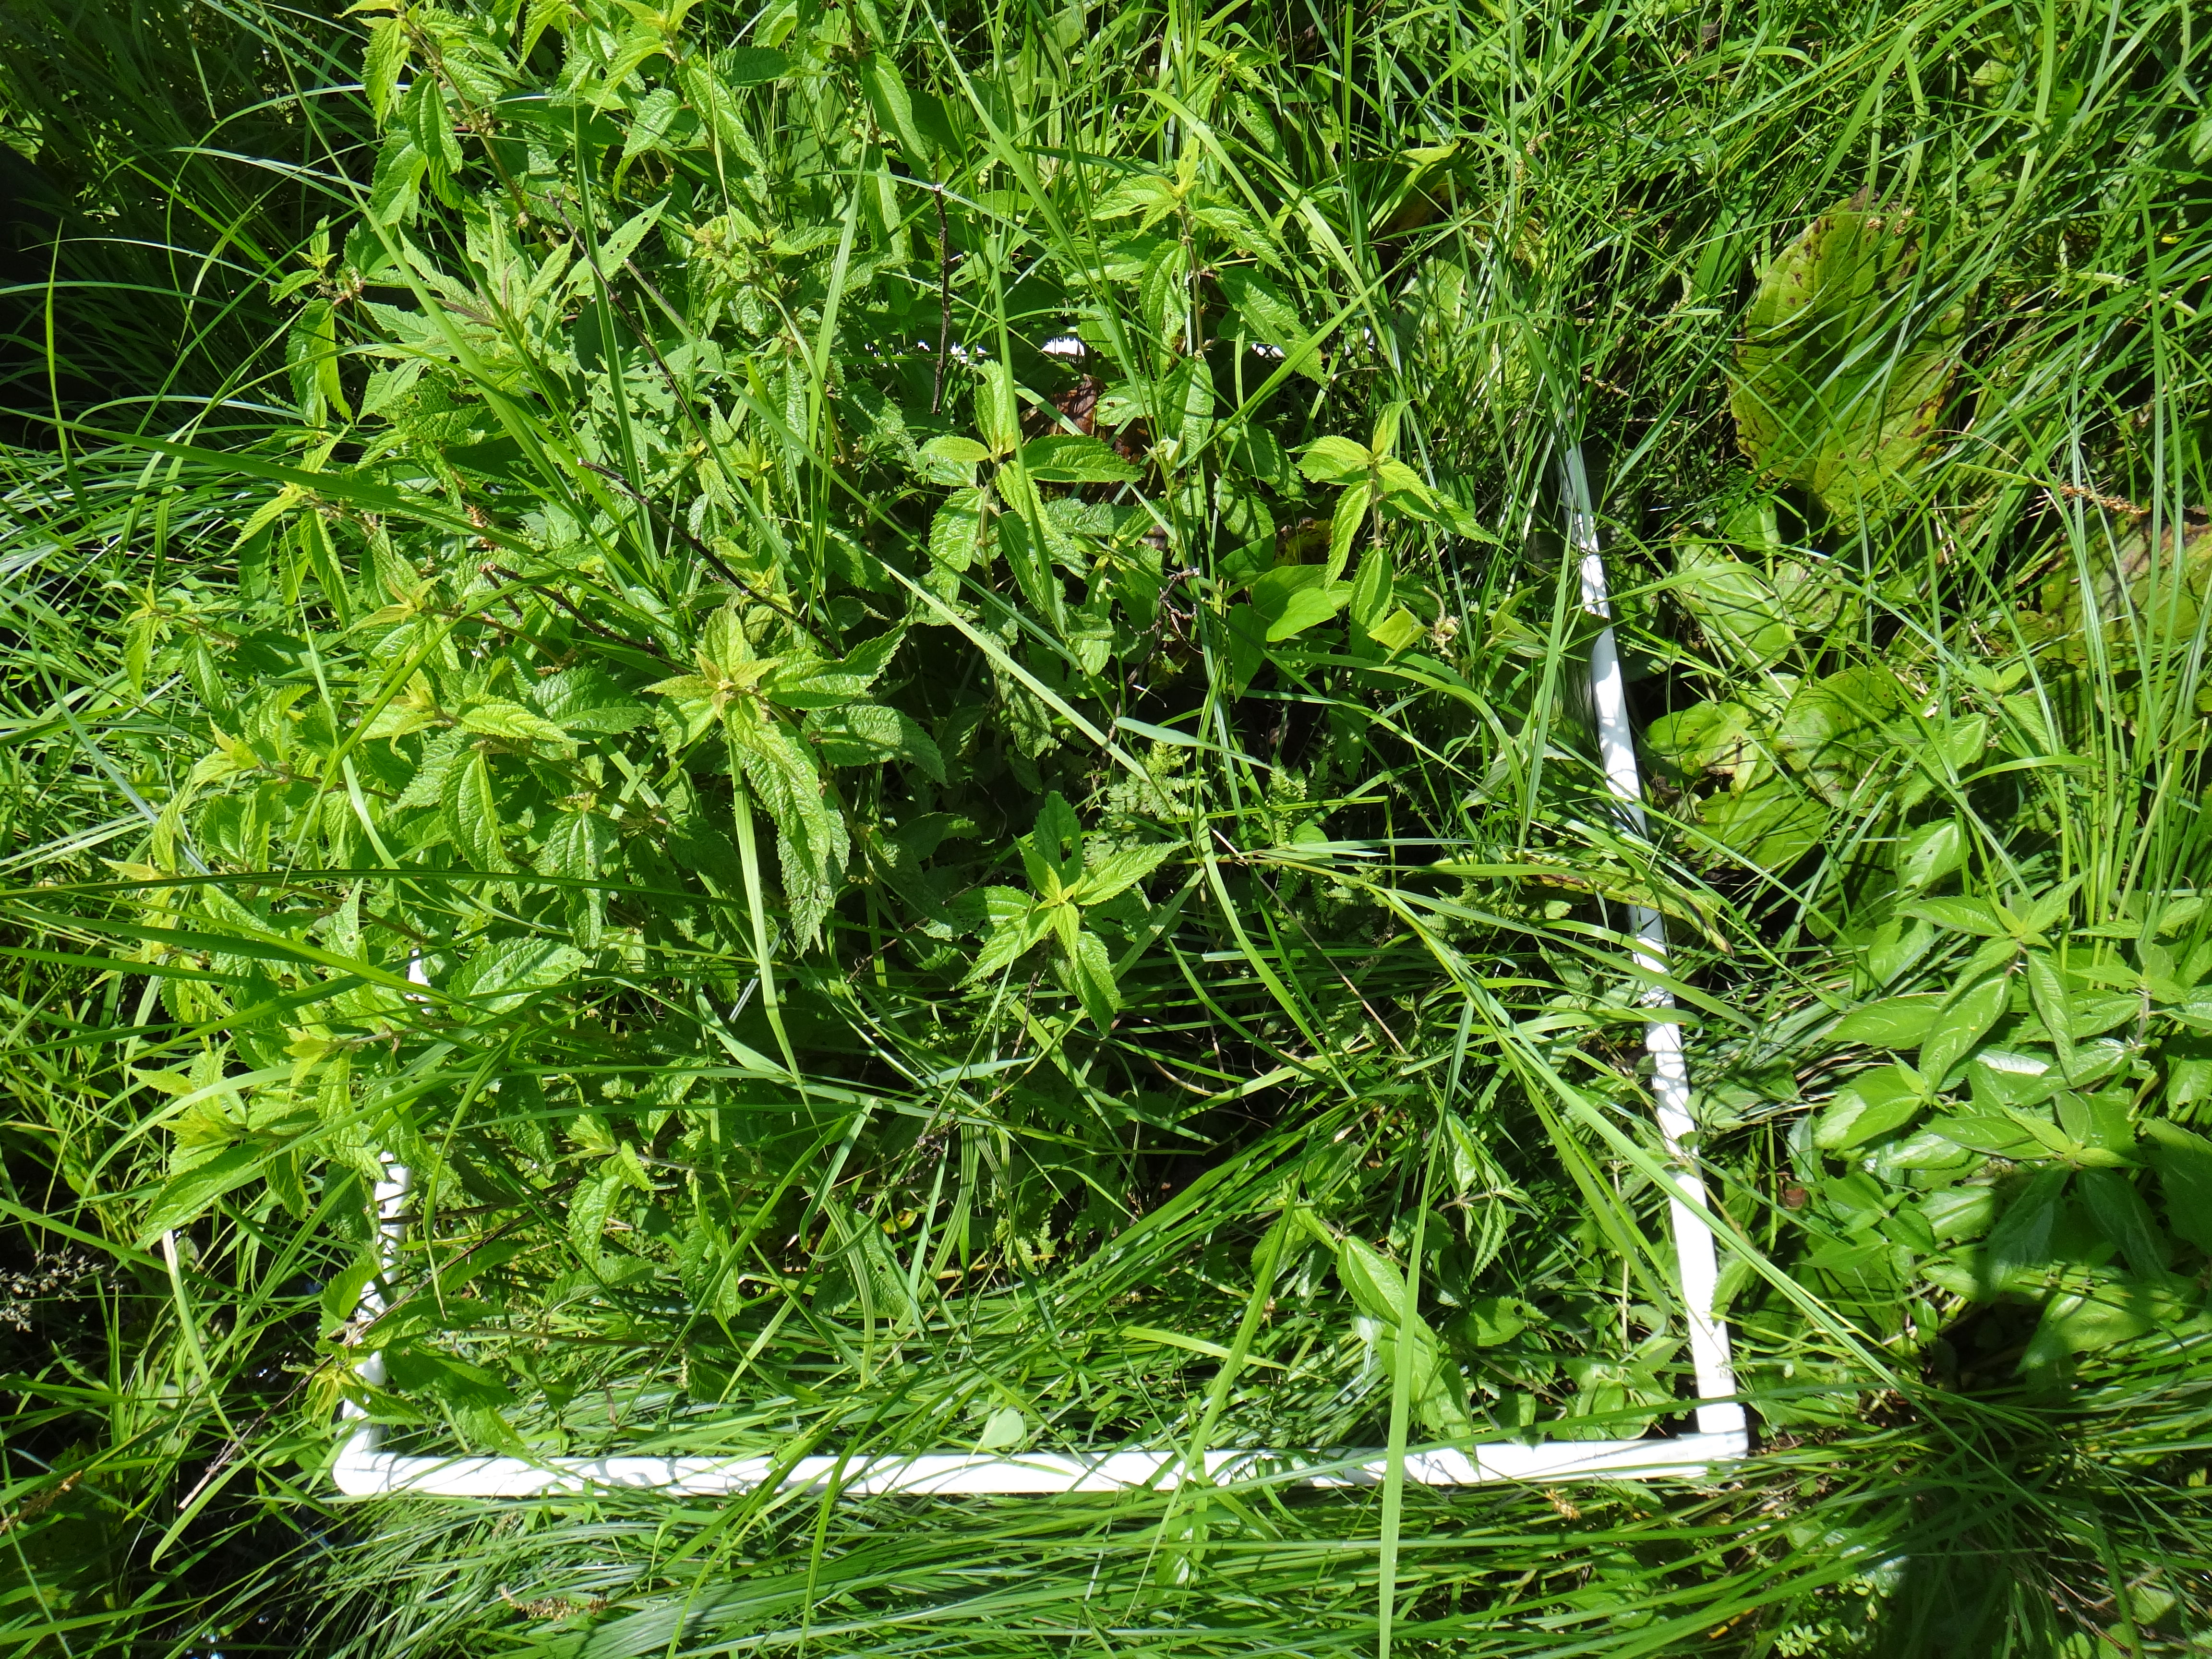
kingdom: Plantae
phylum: Tracheophyta
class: Liliopsida
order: Poales
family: Cyperaceae
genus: Carex
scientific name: Carex stricta
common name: Hummock sedge
